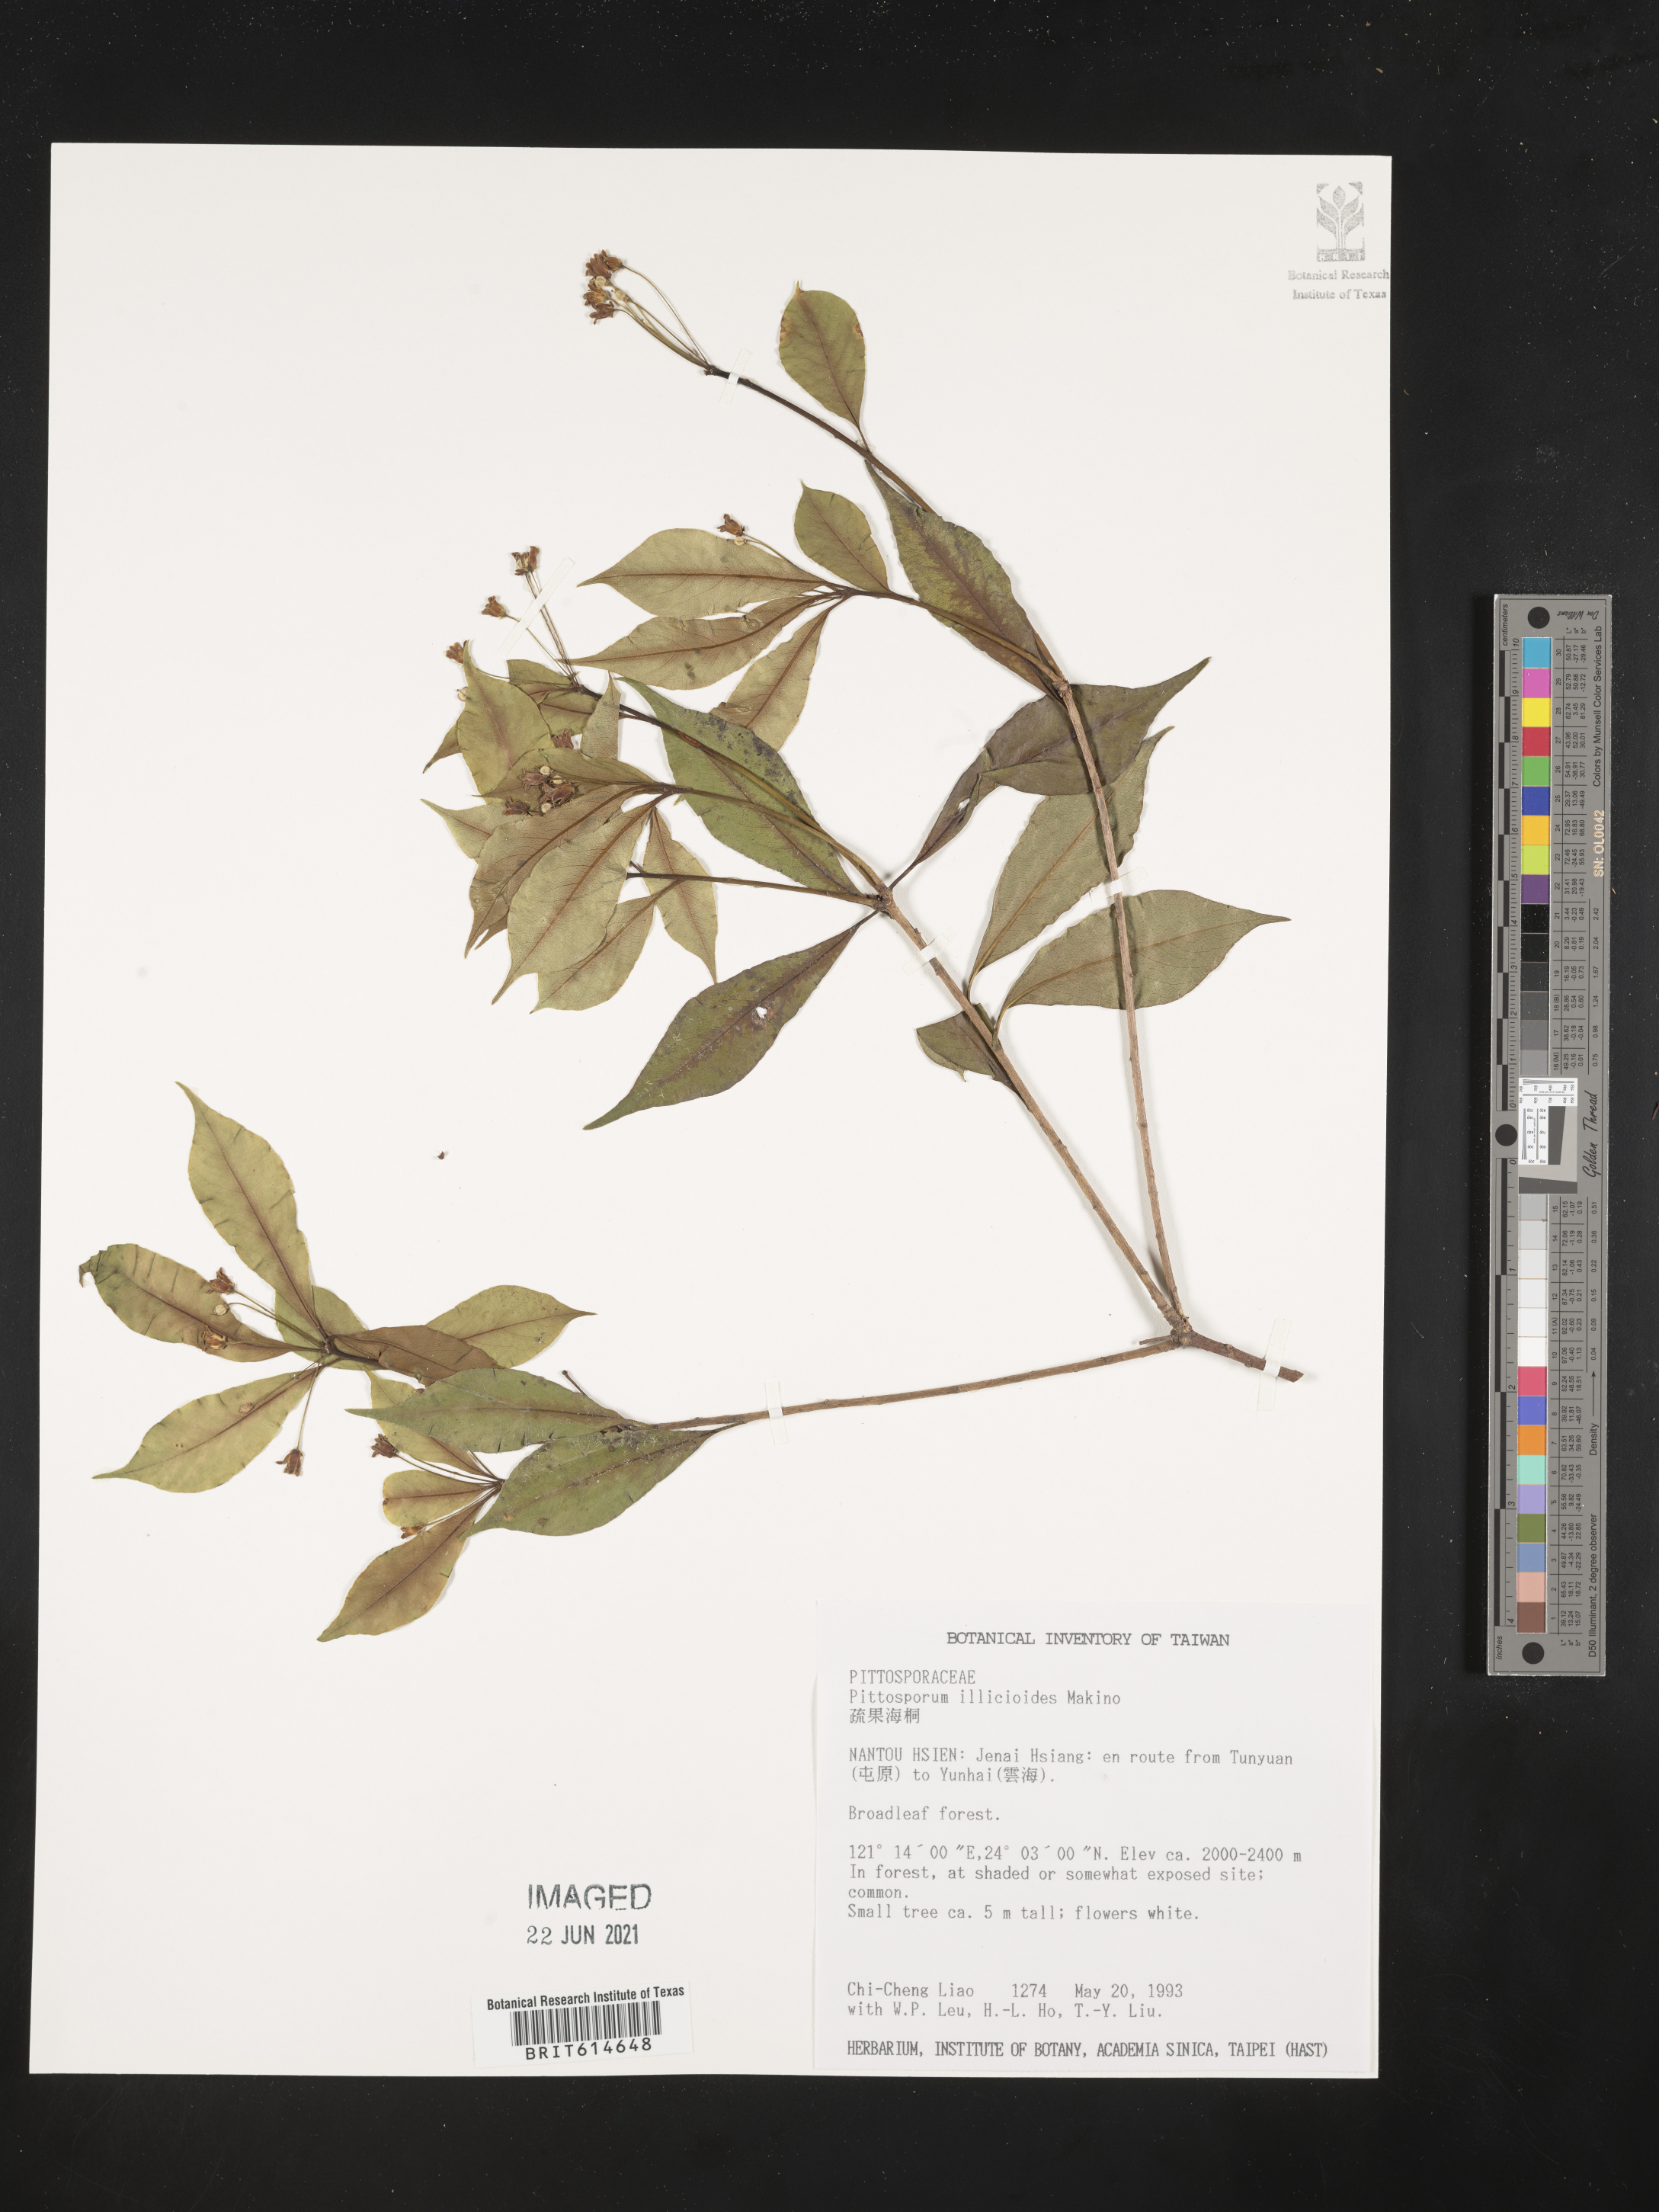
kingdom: Plantae
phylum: Tracheophyta
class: Magnoliopsida
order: Apiales
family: Pittosporaceae
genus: Pittosporum
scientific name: Pittosporum illicioides
